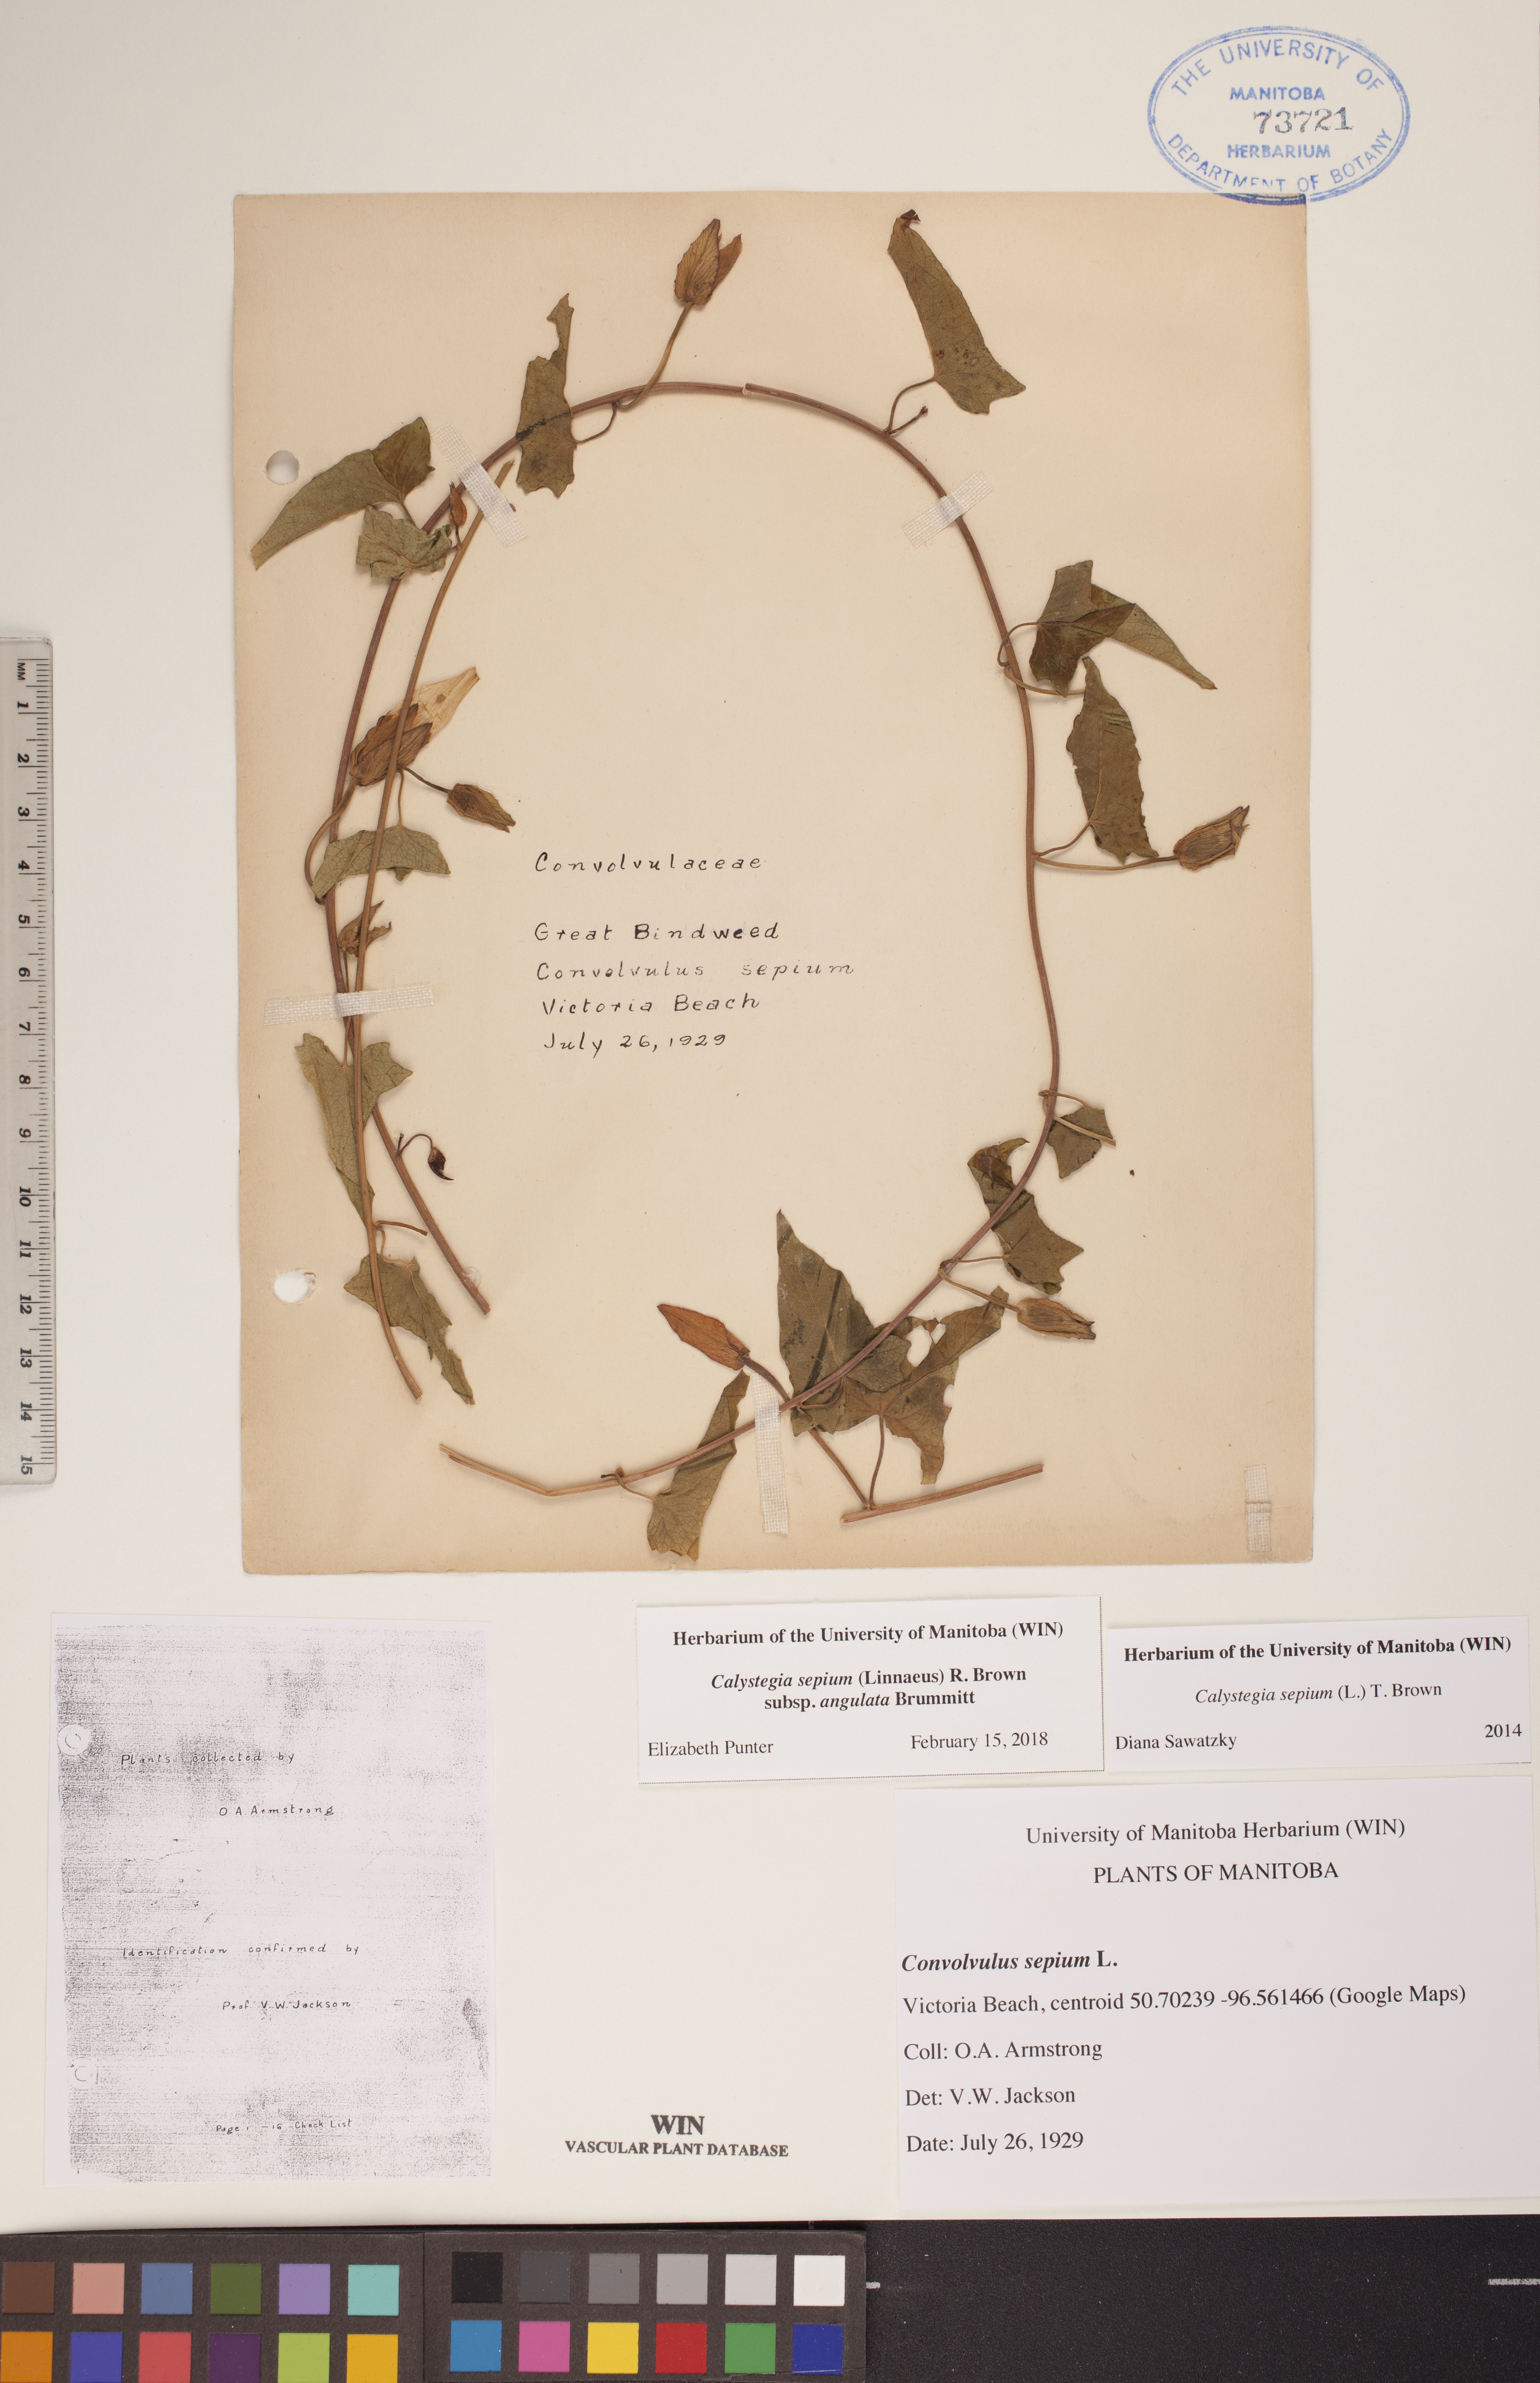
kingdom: Plantae
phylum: Tracheophyta
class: Magnoliopsida
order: Solanales
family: Convolvulaceae
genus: Calystegia
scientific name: Calystegia sepium
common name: Hedge bindweed
